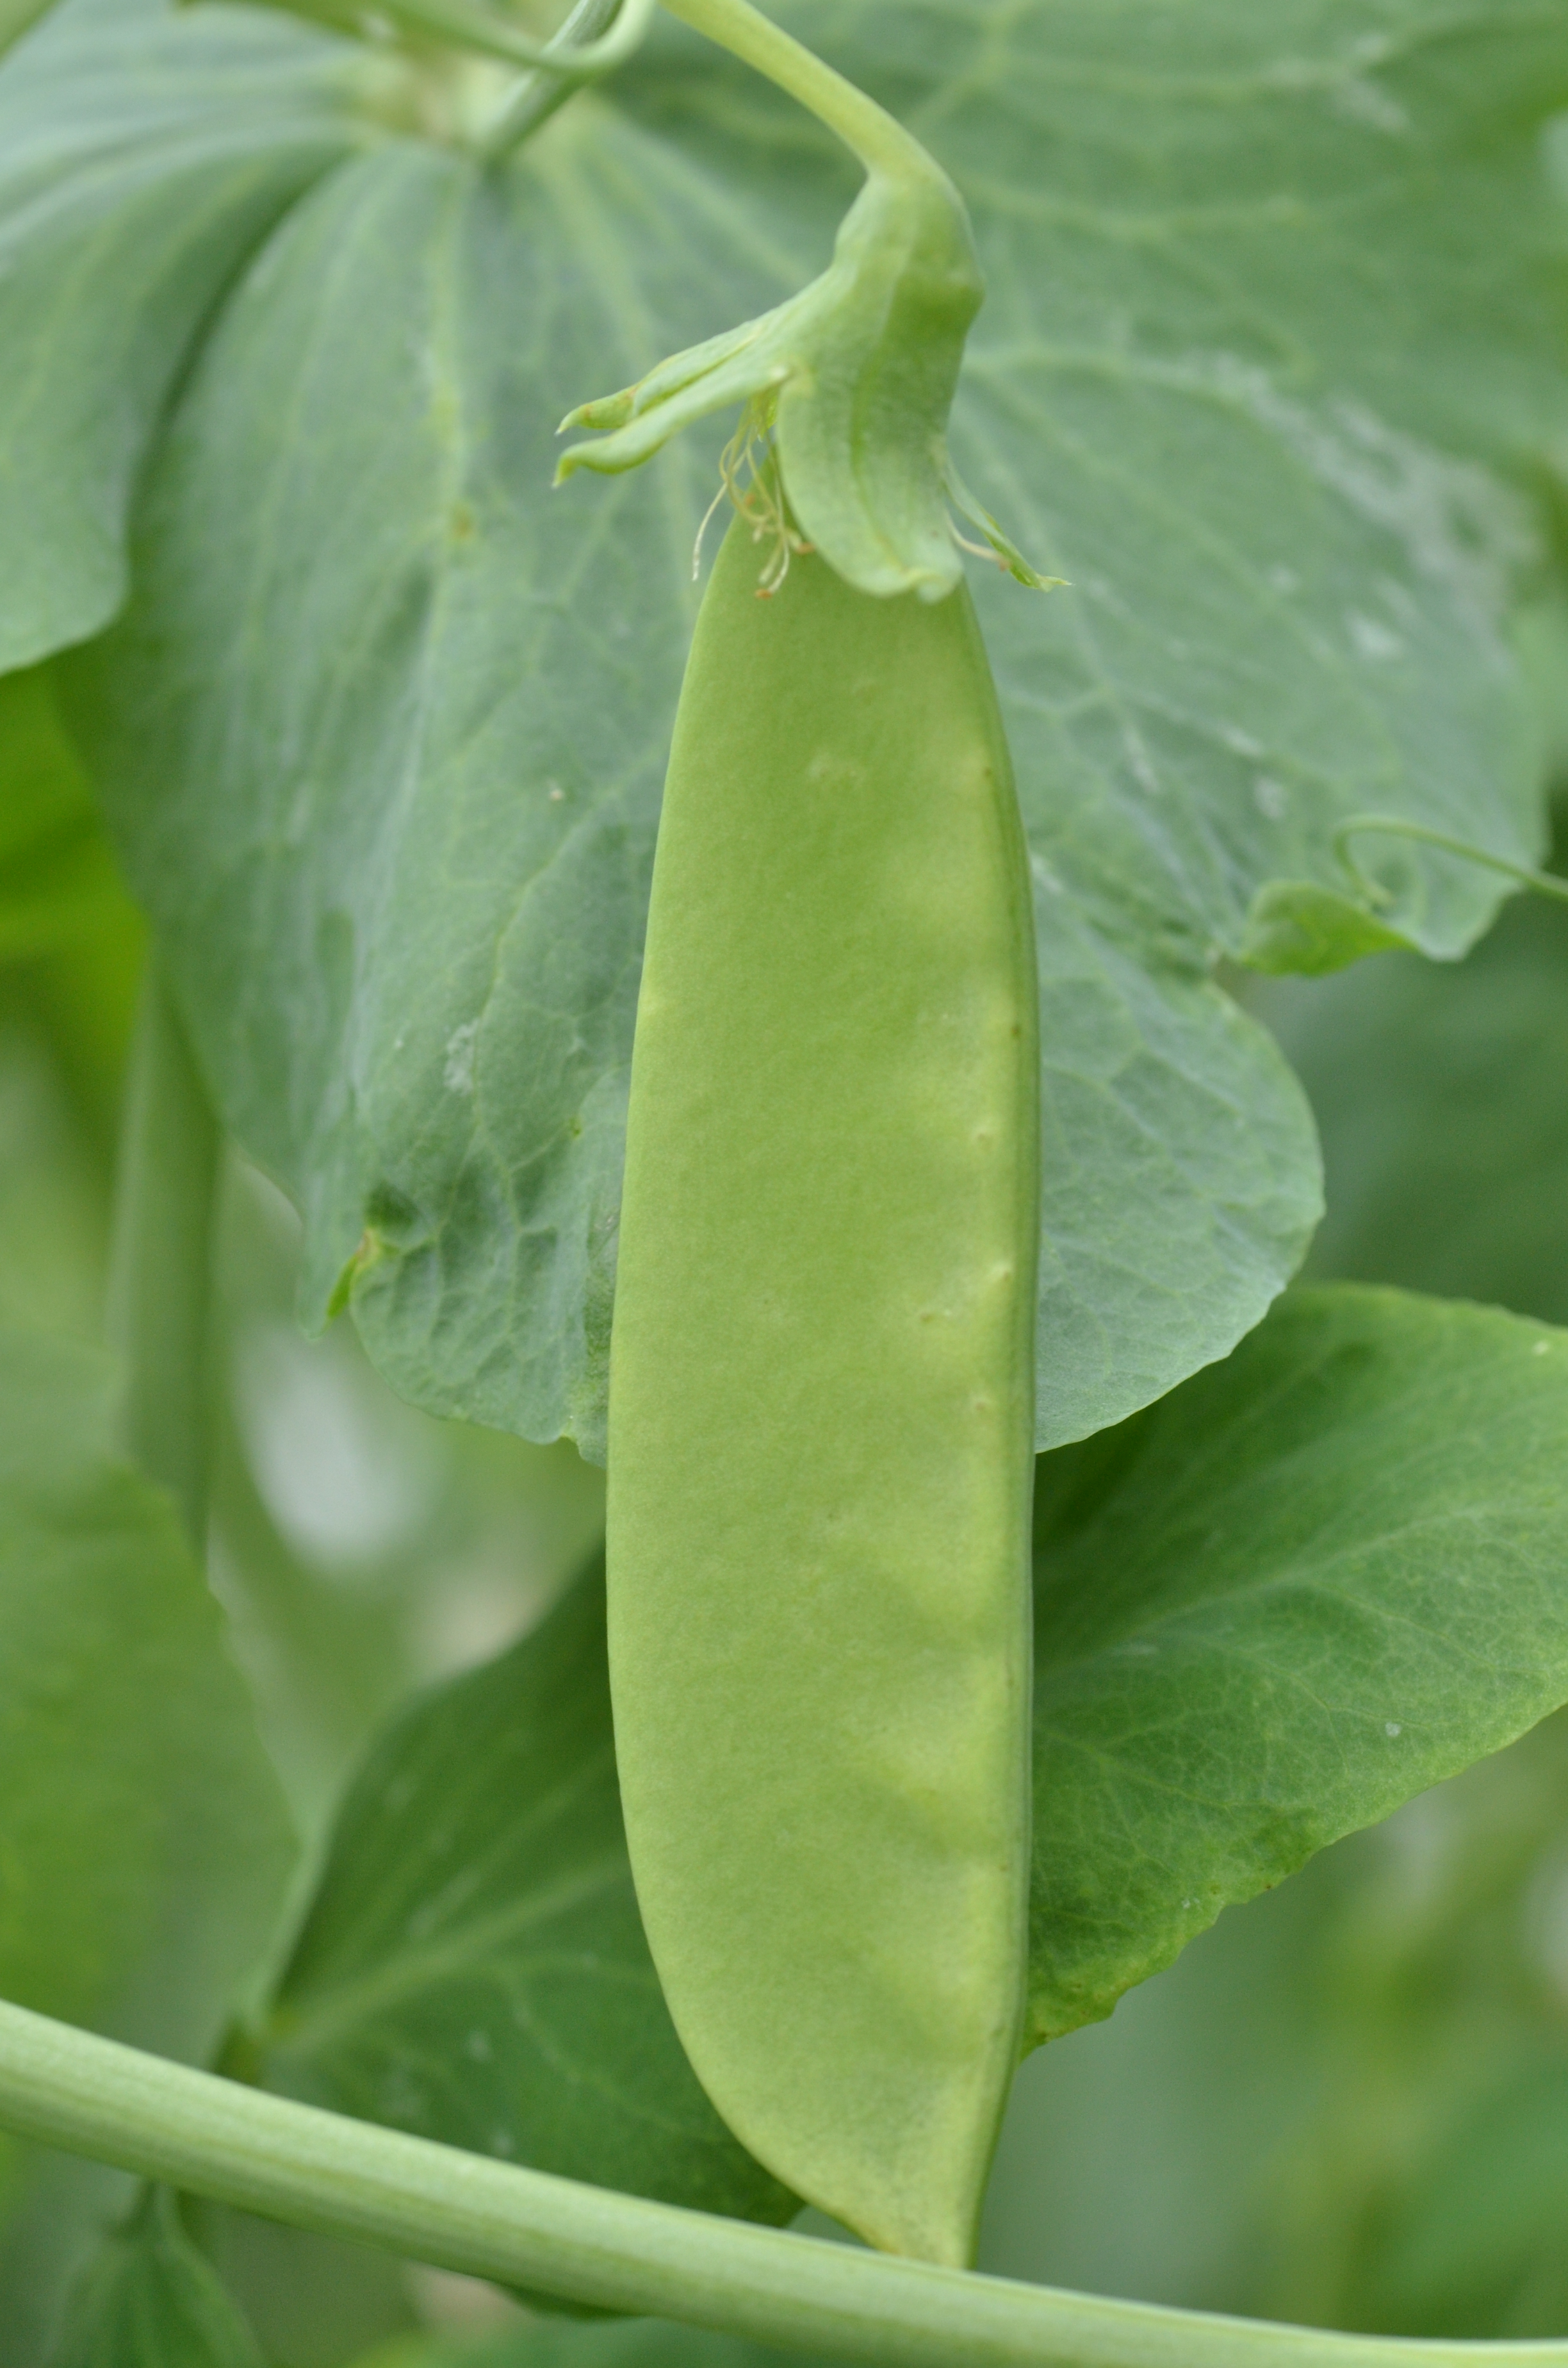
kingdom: Plantae
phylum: Tracheophyta
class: Magnoliopsida
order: Fabales
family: Fabaceae
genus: Lathyrus
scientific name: Lathyrus oleraceus
